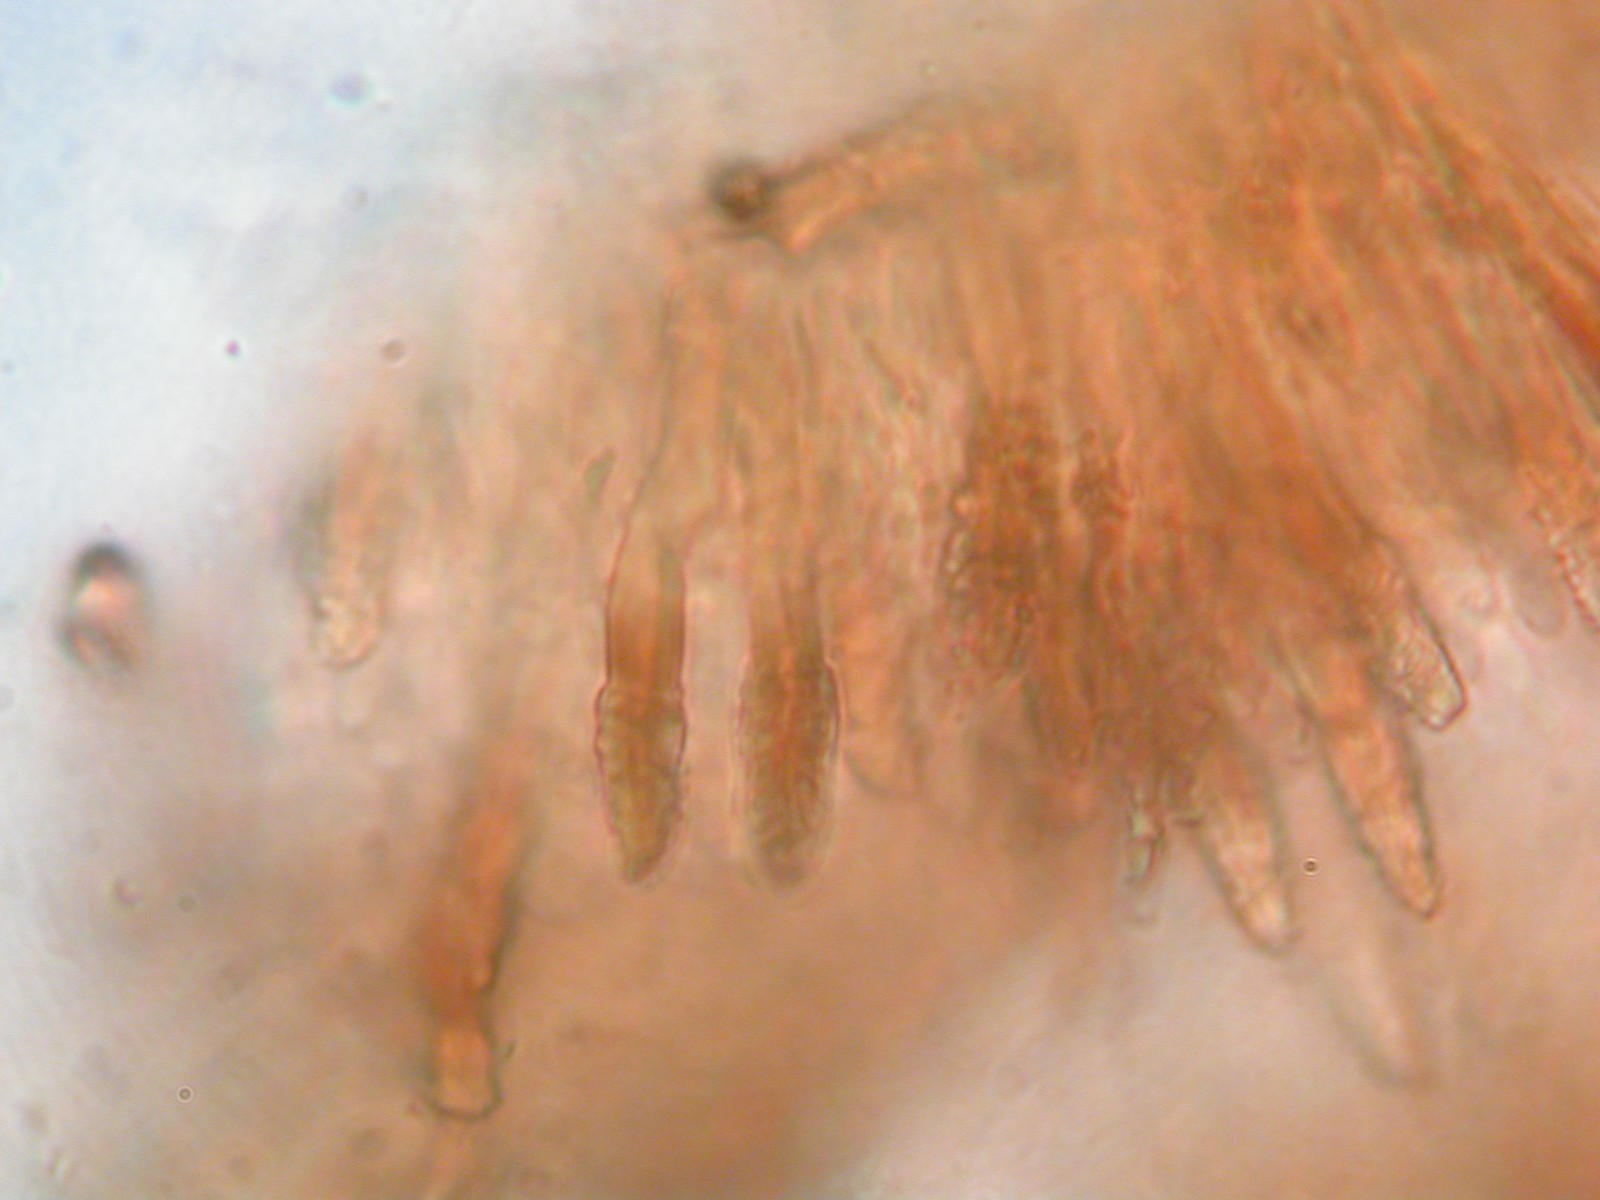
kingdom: Fungi
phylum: Basidiomycota
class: Agaricomycetes
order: Russulales
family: Echinodontiaceae
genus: Amylostereum
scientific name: Amylostereum chailletii
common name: gran-lædersvamp
